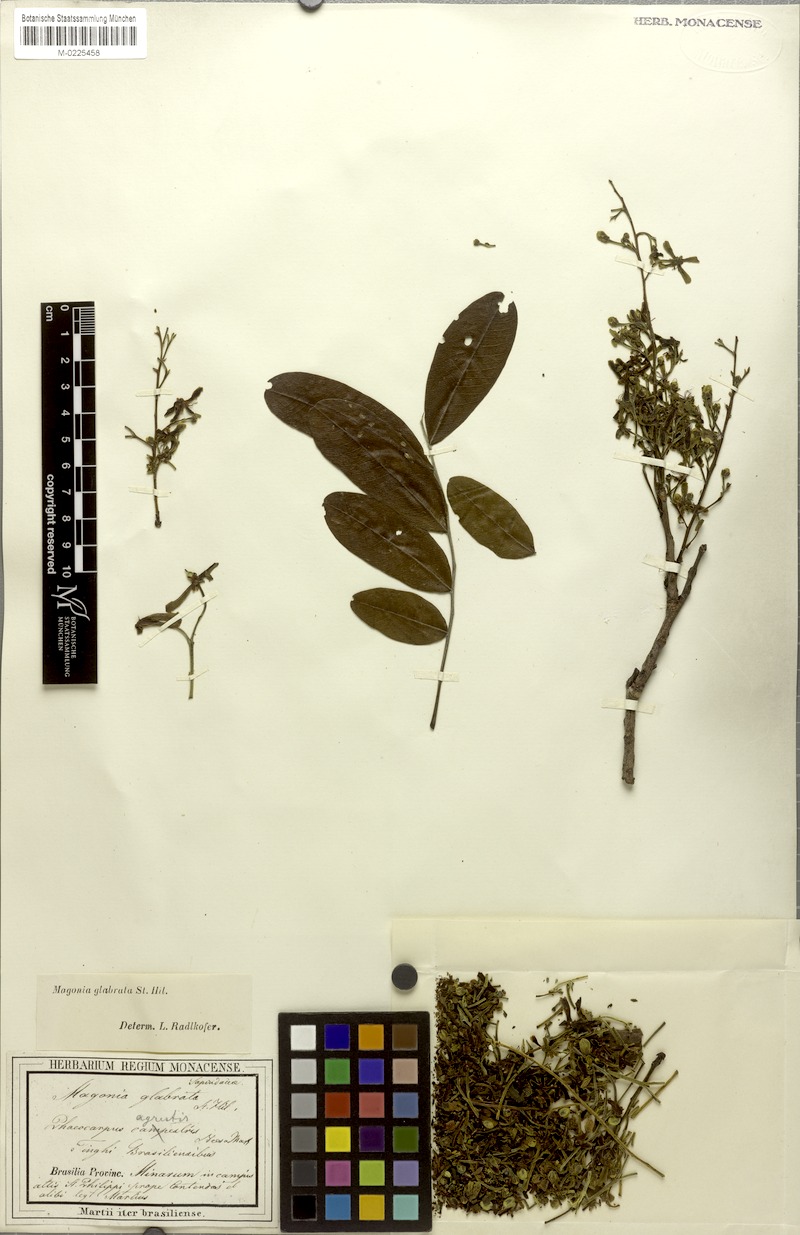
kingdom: Plantae
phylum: Tracheophyta
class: Magnoliopsida
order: Sapindales
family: Sapindaceae
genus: Magonia
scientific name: Magonia pubescens
